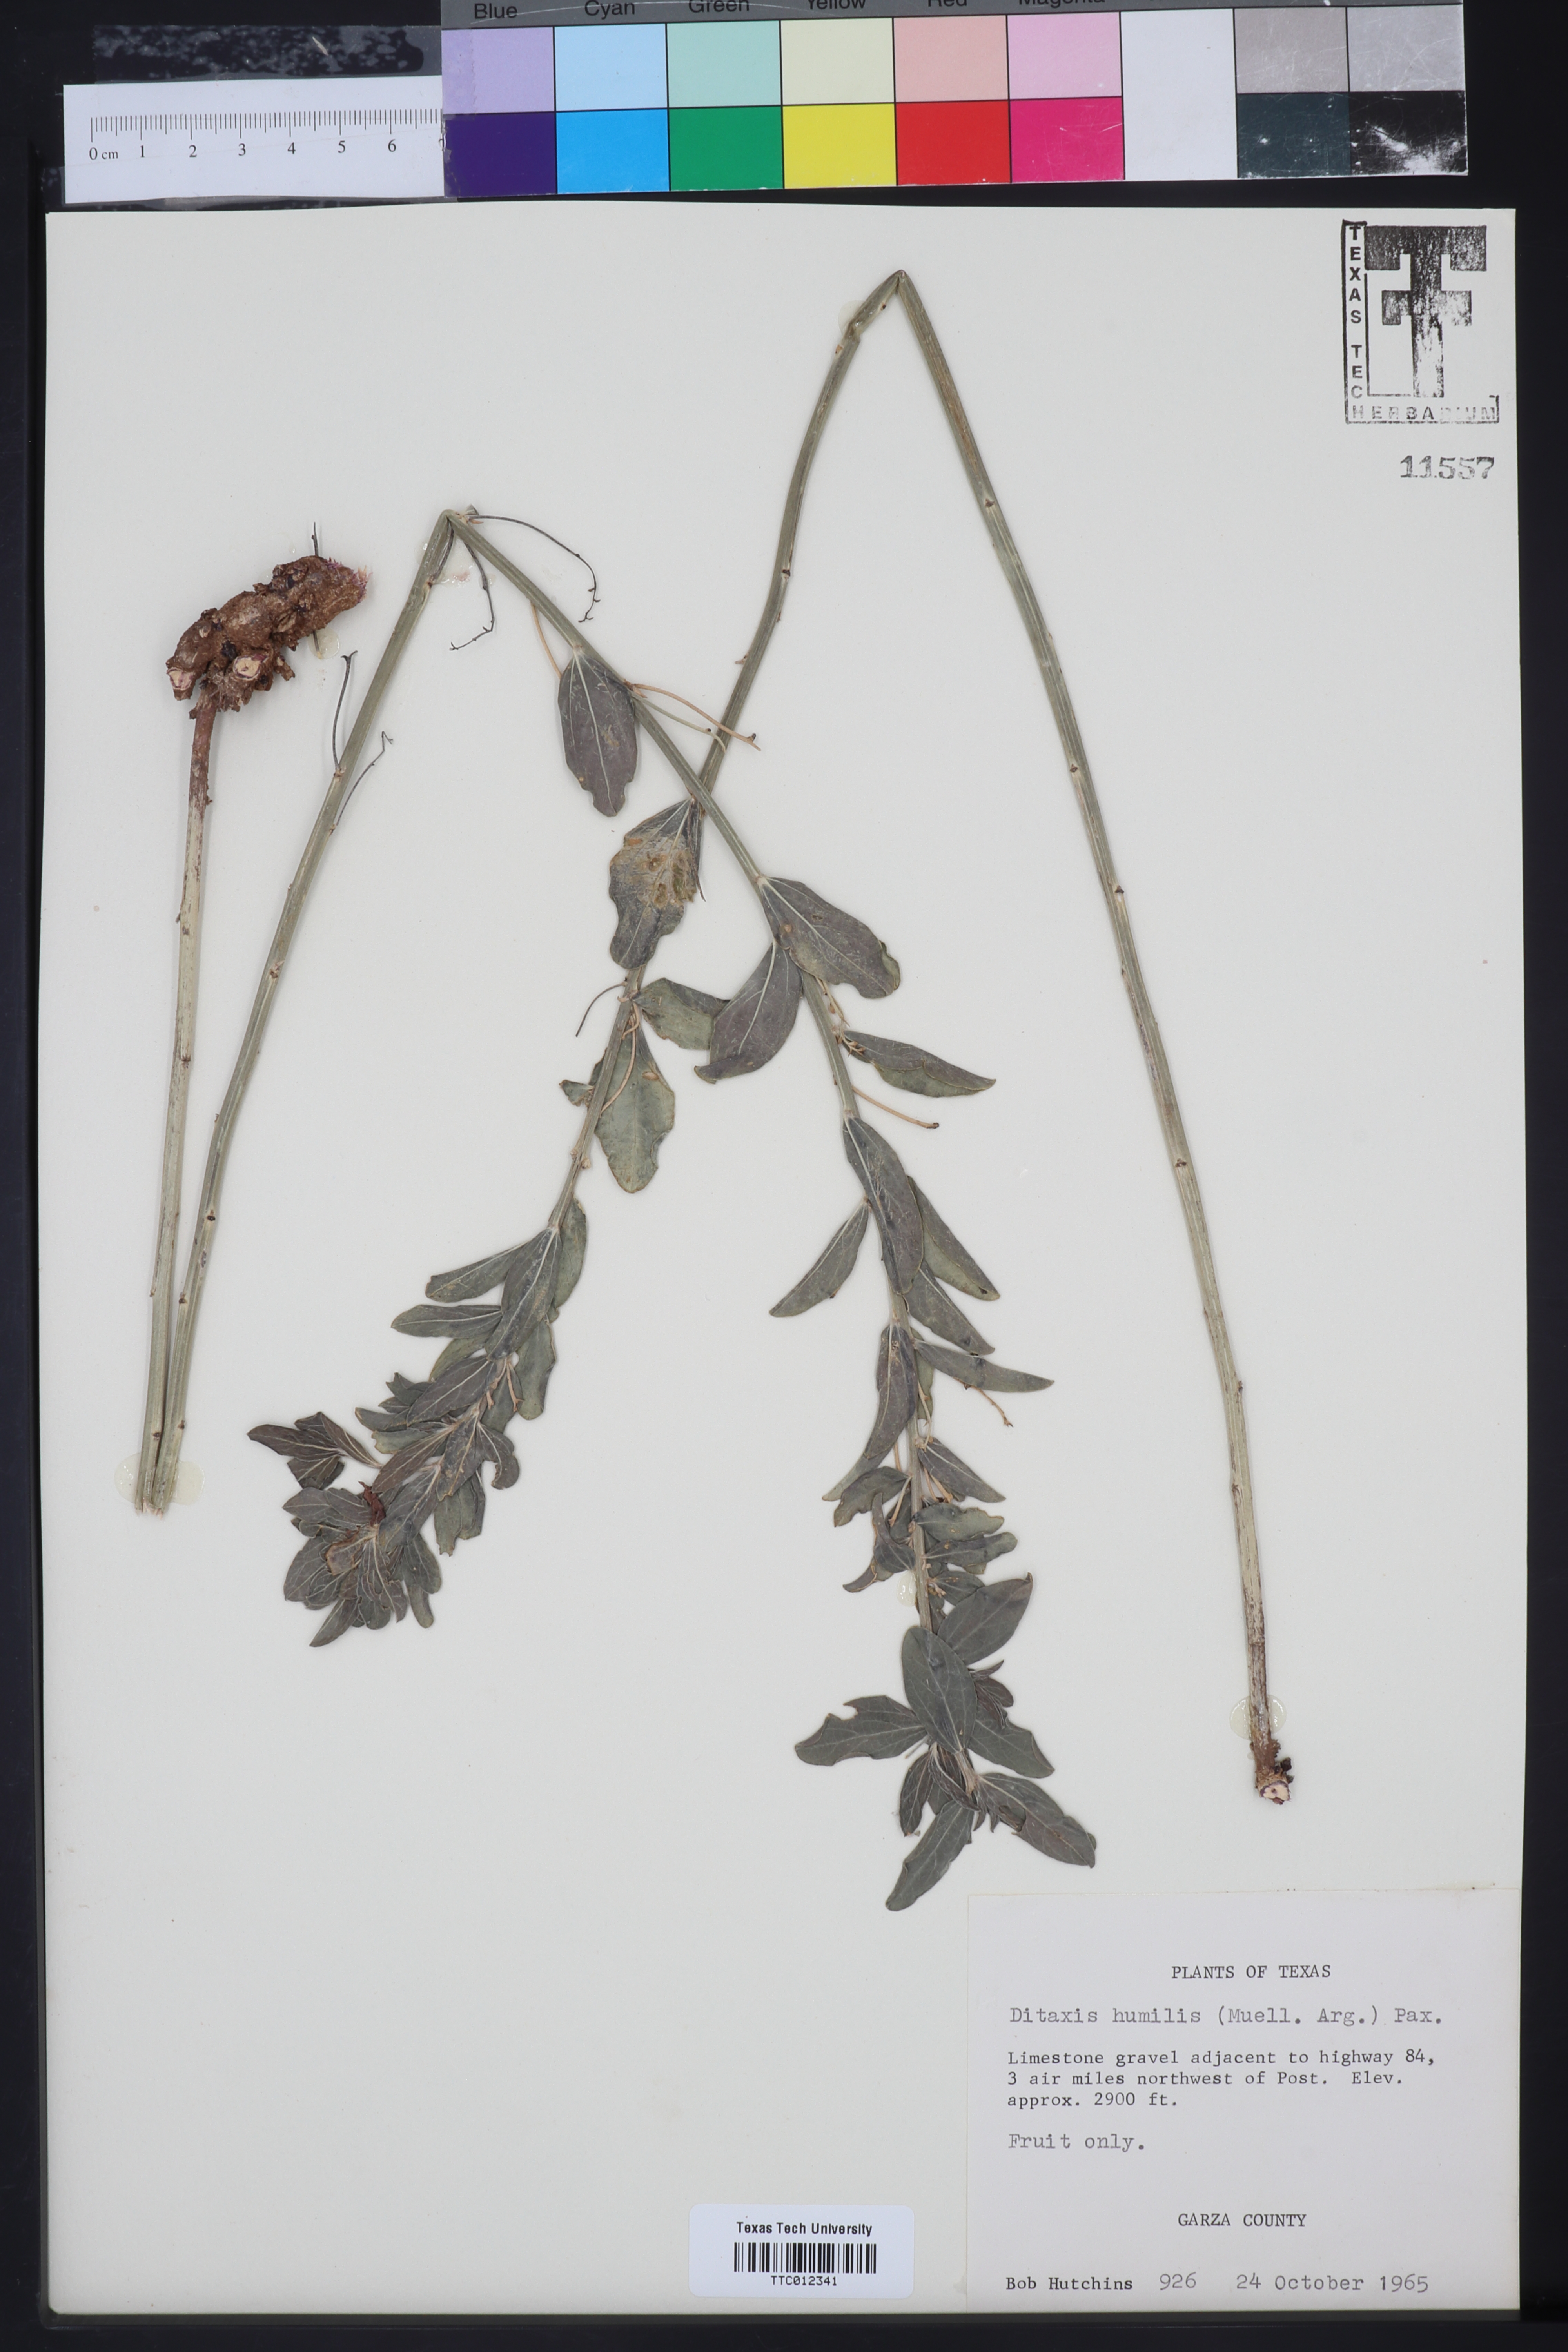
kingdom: Plantae
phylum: Tracheophyta
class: Magnoliopsida
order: Malpighiales
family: Euphorbiaceae
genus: Ditaxis
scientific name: Ditaxis humilis
